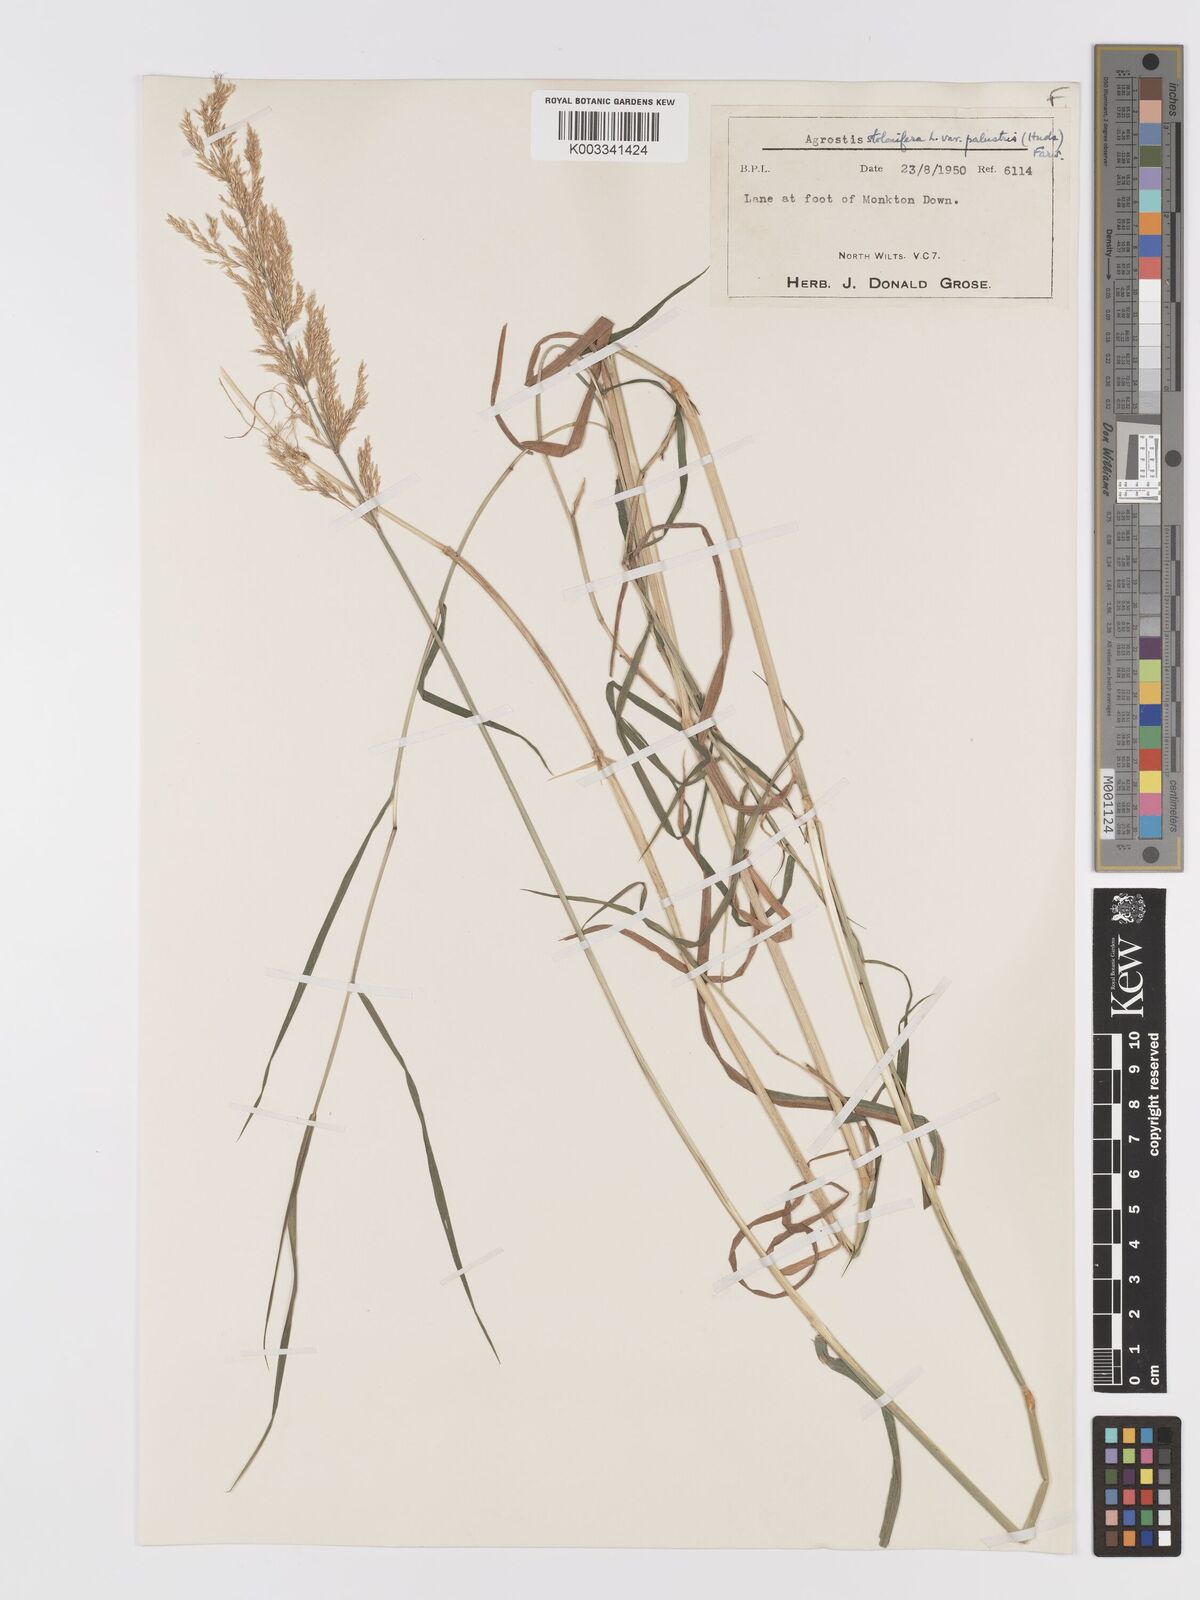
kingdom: Plantae
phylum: Tracheophyta
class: Liliopsida
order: Poales
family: Poaceae
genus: Agrostis
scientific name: Agrostis stolonifera
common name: Creeping bentgrass
